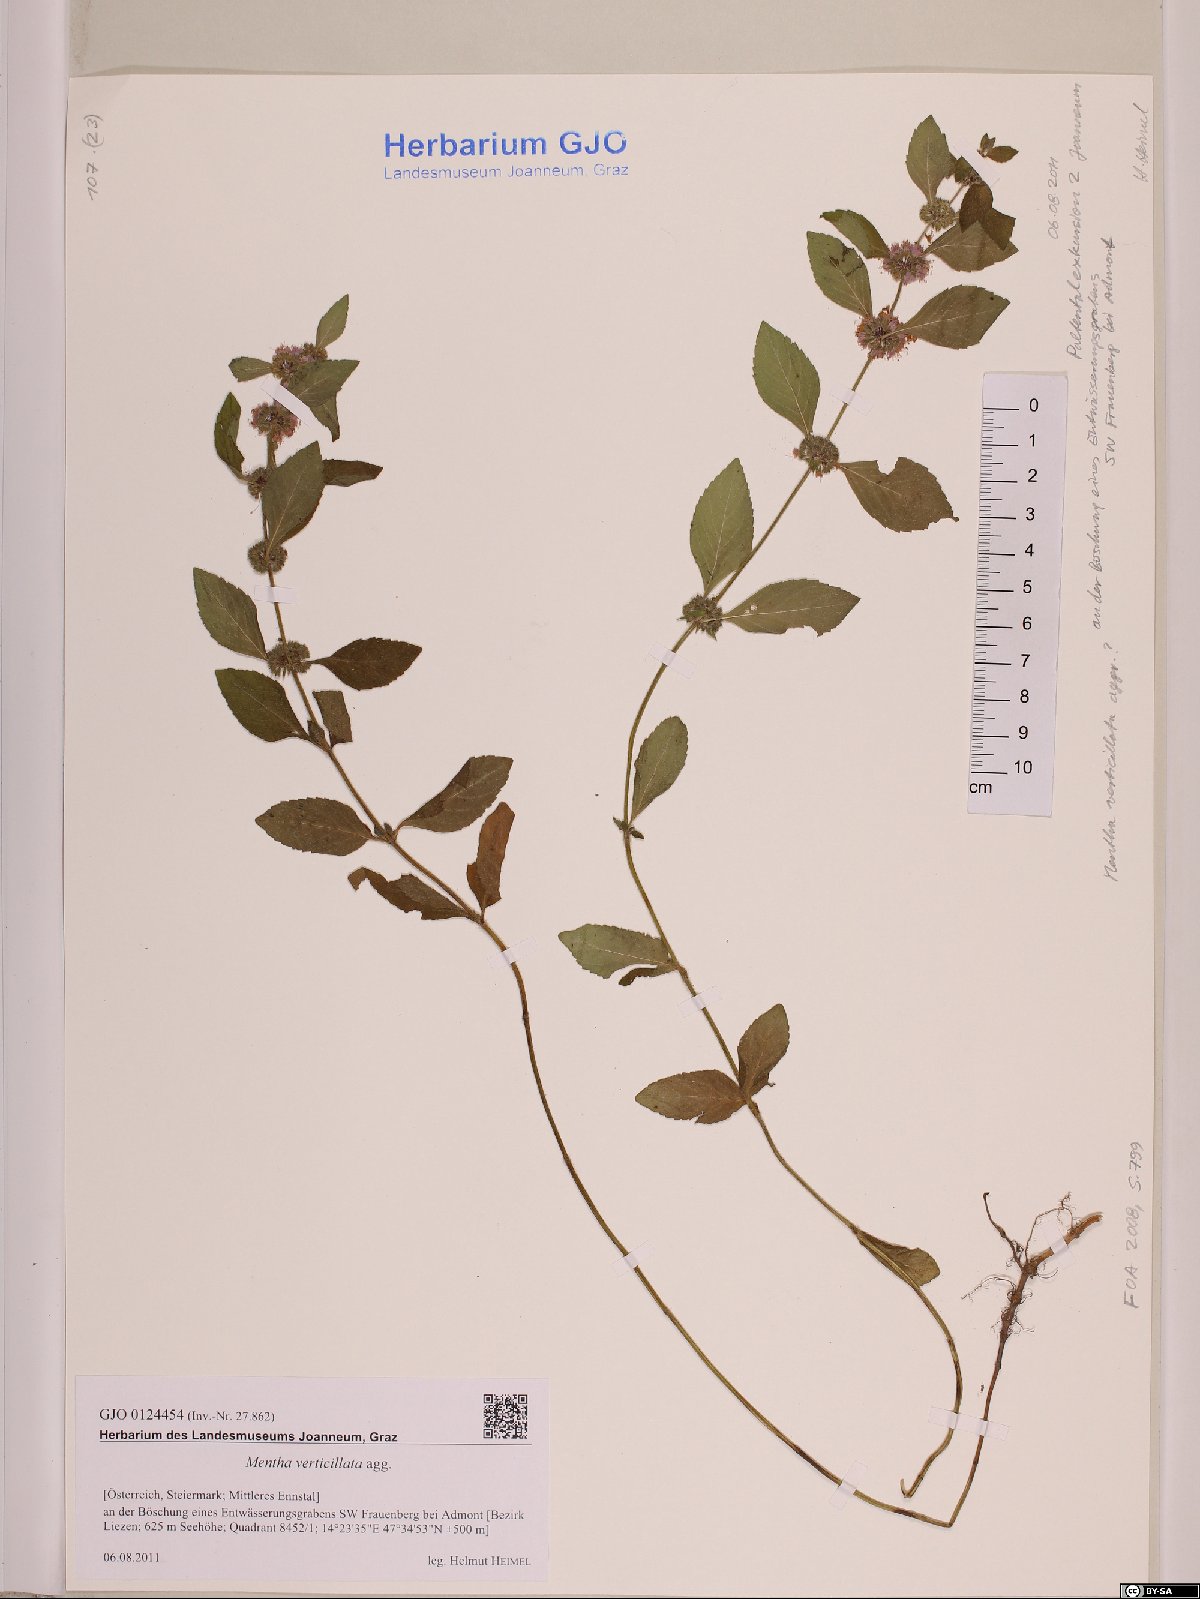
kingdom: Plantae
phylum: Tracheophyta
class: Magnoliopsida
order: Lamiales
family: Lamiaceae
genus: Mentha
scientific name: Mentha verticillata
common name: Mint
